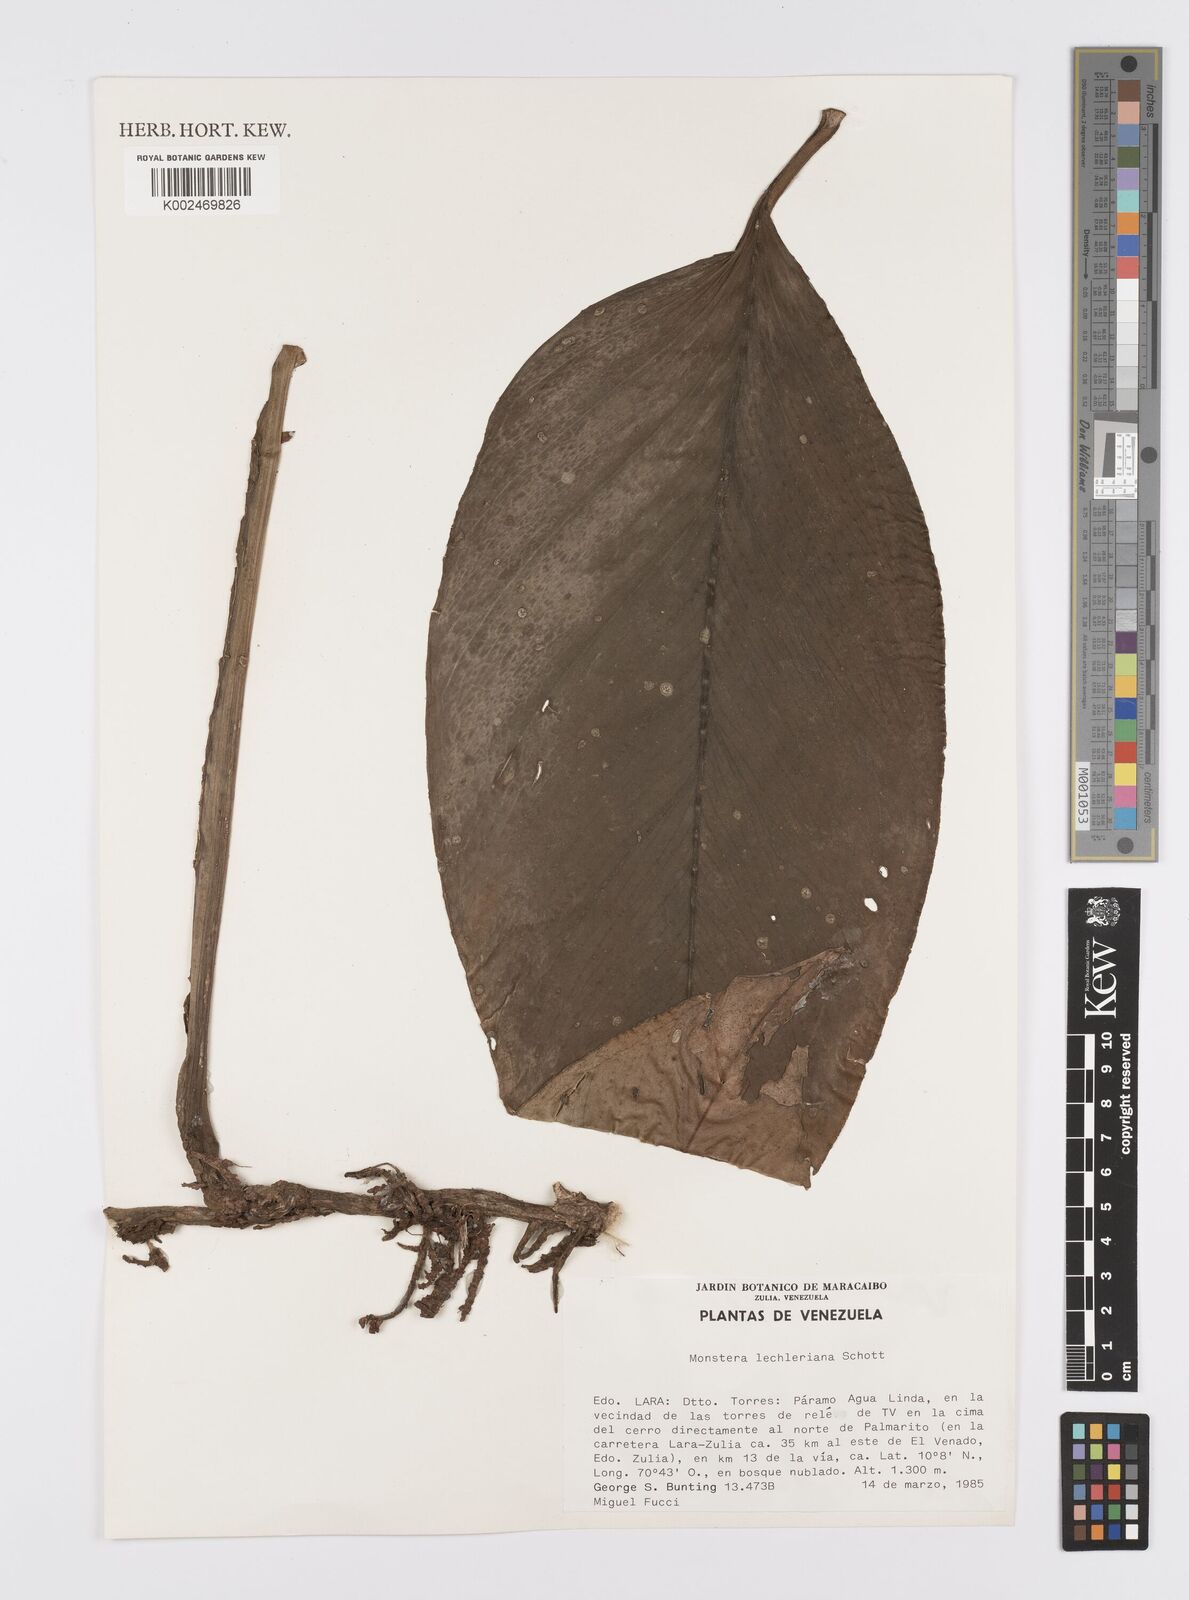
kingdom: Plantae
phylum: Tracheophyta
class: Liliopsida
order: Alismatales
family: Araceae
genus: Monstera
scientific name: Monstera lechleriana
